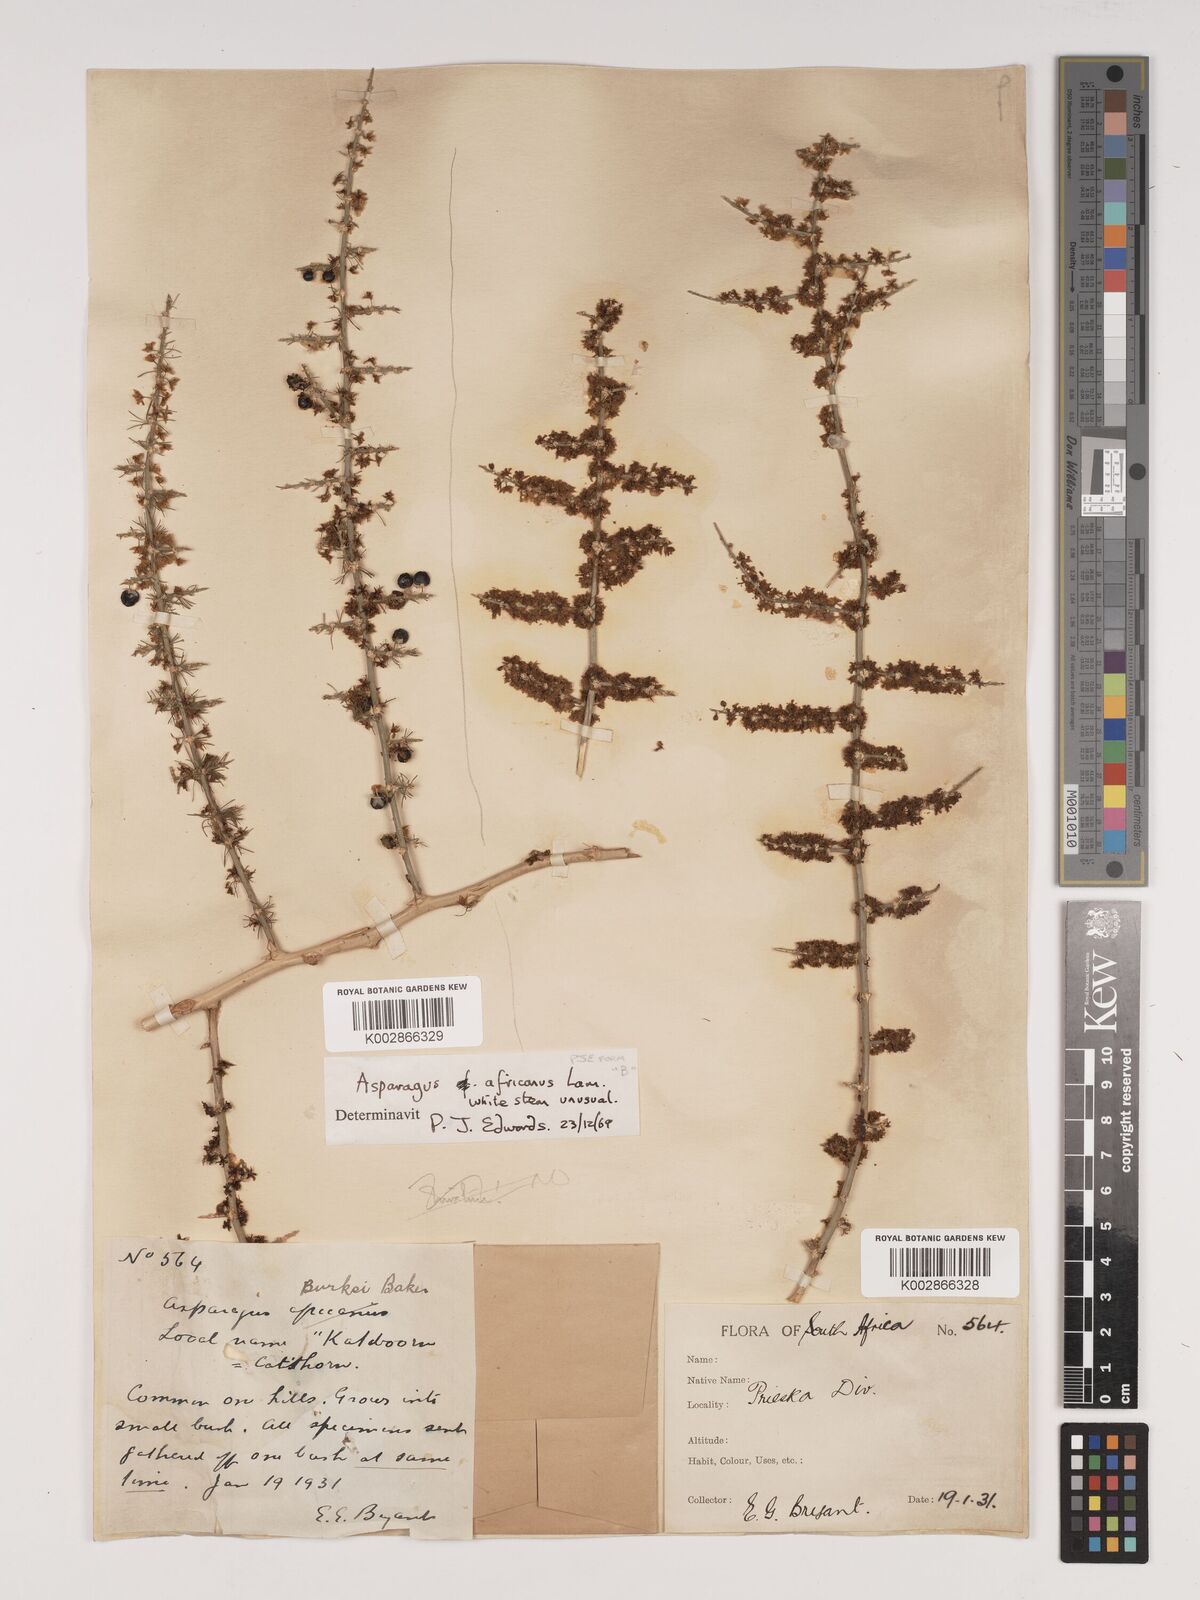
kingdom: Plantae
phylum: Tracheophyta
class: Liliopsida
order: Asparagales
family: Asparagaceae
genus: Asparagus
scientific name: Asparagus africanus
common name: Asparagus-fern
